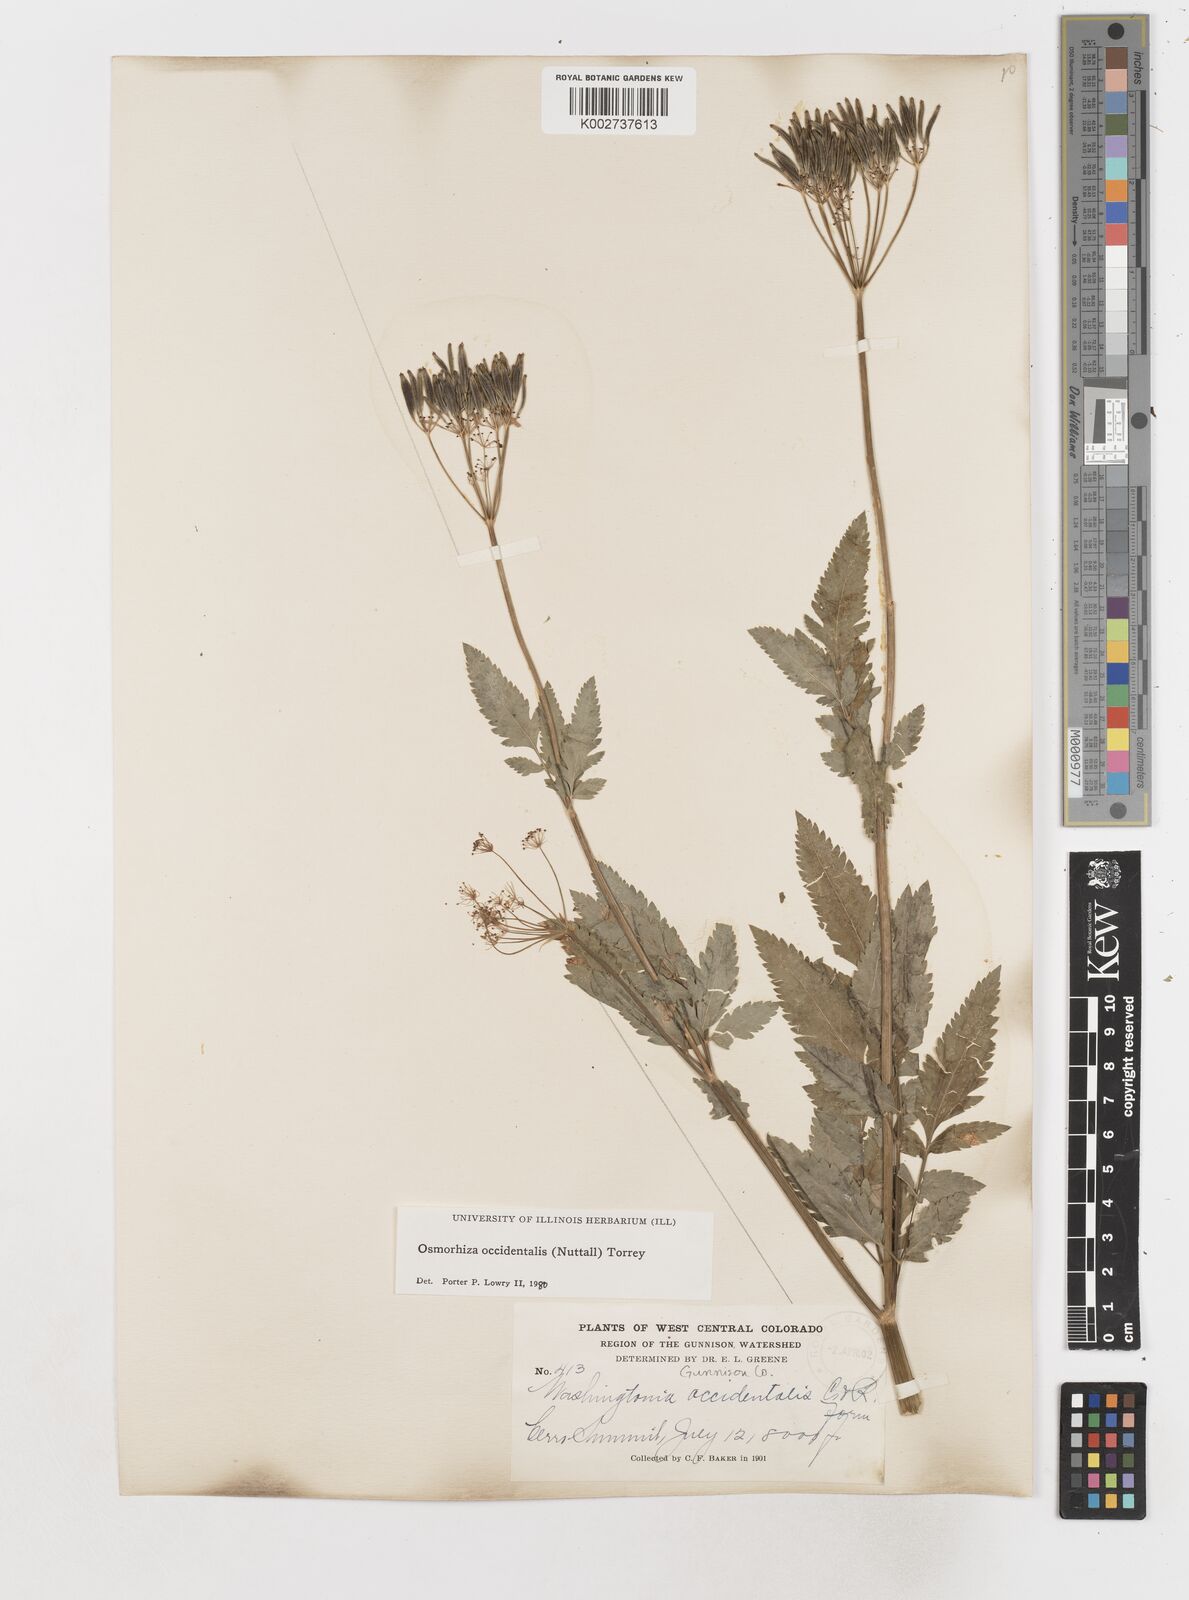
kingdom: Plantae
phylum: Tracheophyta
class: Magnoliopsida
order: Apiales
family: Apiaceae
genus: Osmorhiza
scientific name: Osmorhiza occidentalis
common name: Western sweet cicely
